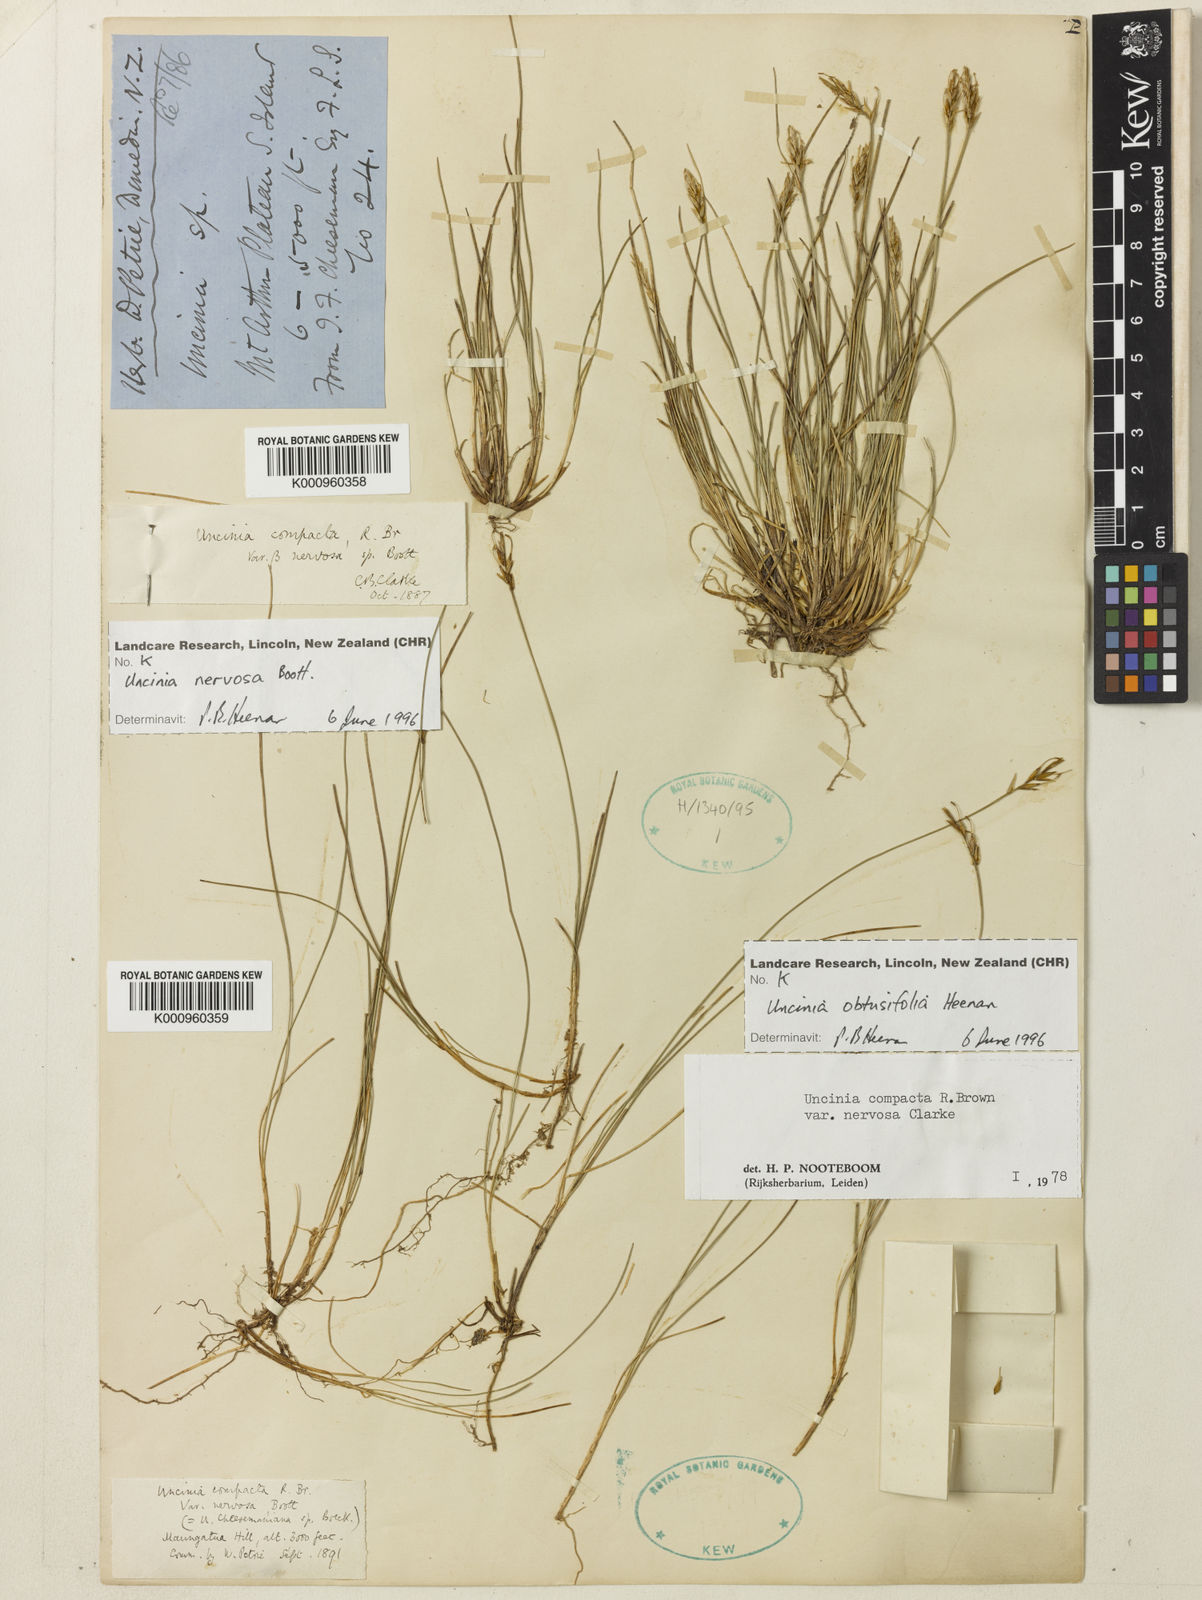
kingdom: Plantae
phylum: Tracheophyta
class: Liliopsida
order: Poales
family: Cyperaceae
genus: Carex
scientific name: Carex cheesemanniana
